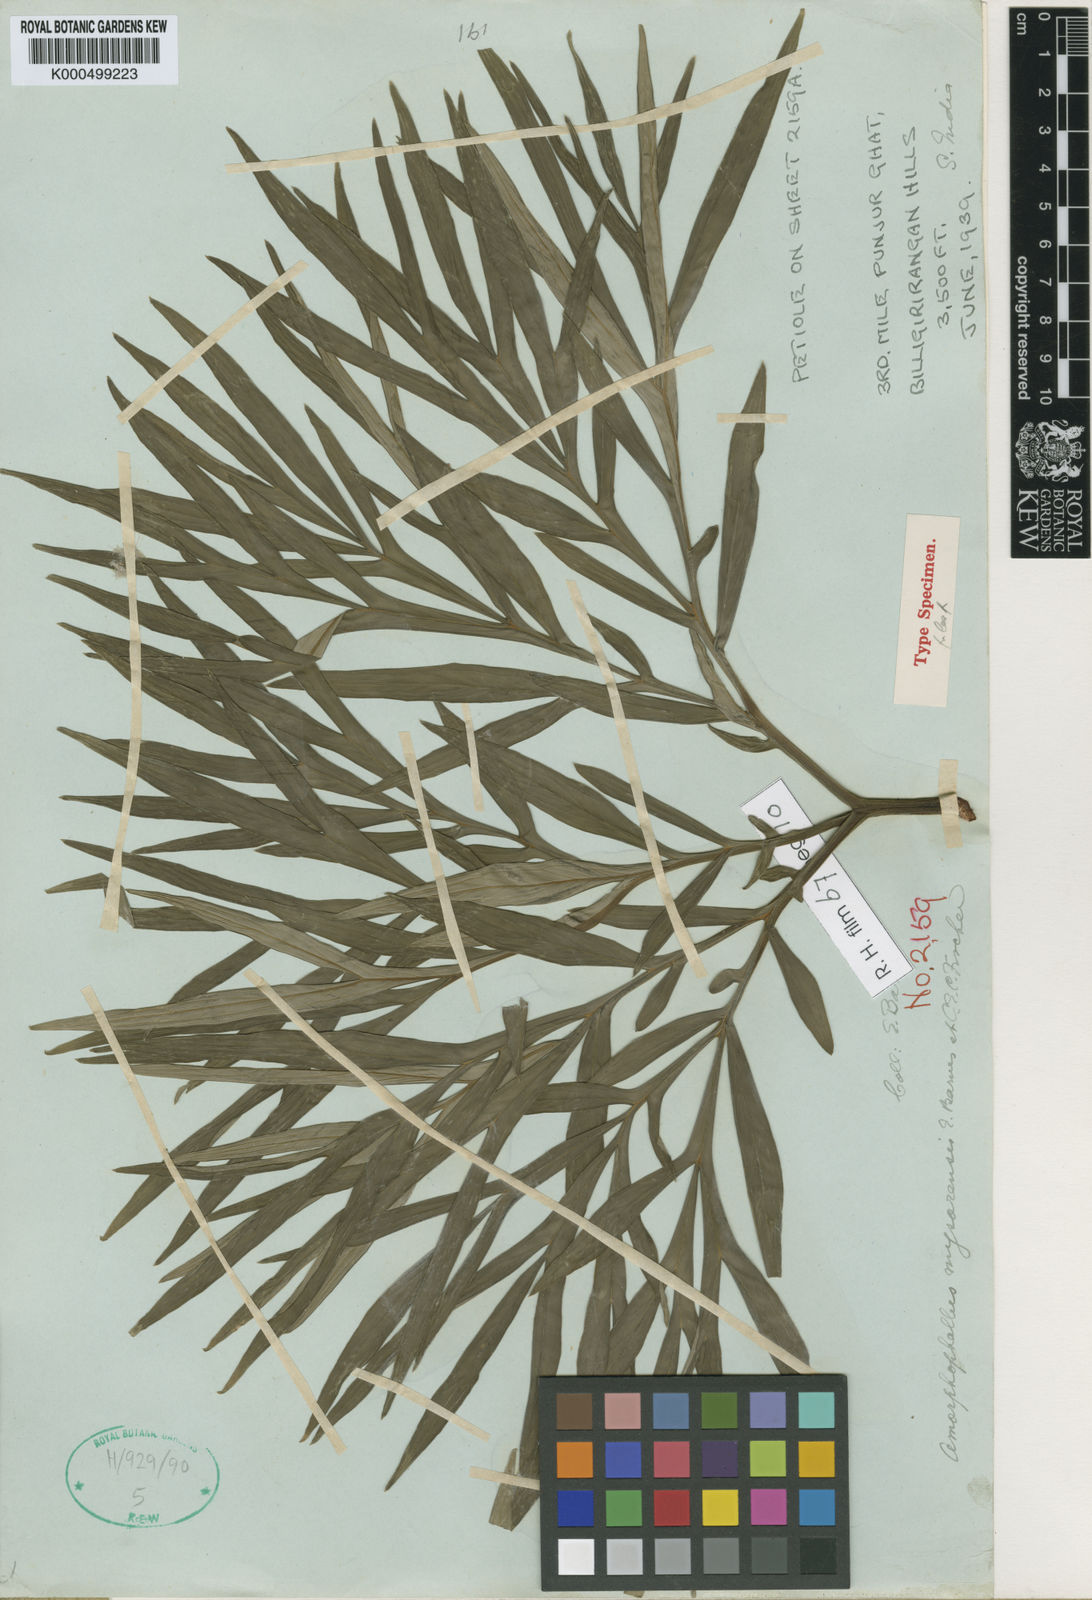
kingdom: Plantae
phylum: Tracheophyta
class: Liliopsida
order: Alismatales
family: Araceae
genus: Amorphophallus
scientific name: Amorphophallus mysorensis
